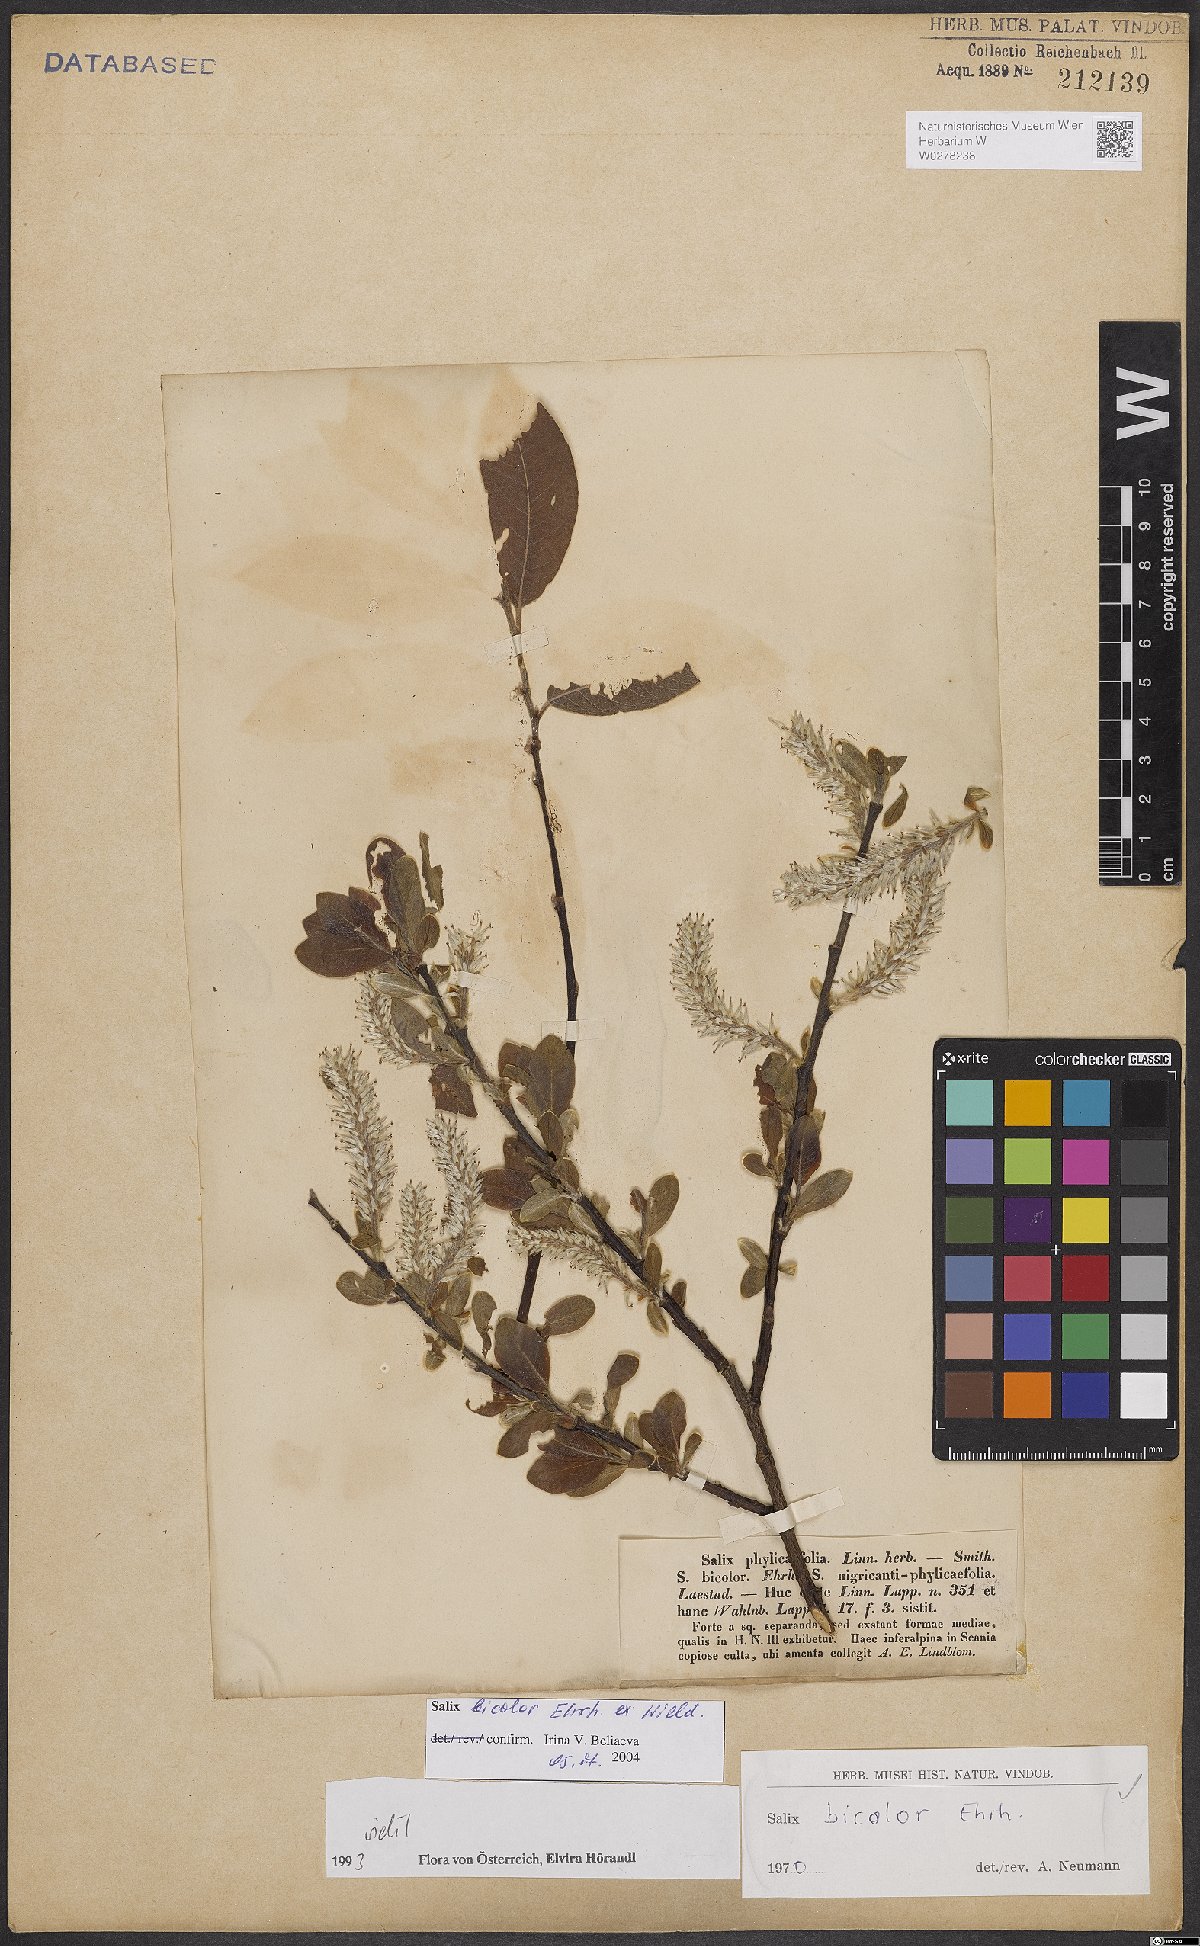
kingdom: Plantae
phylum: Tracheophyta
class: Magnoliopsida
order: Malpighiales
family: Salicaceae
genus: Salix
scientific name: Salix bicolor
